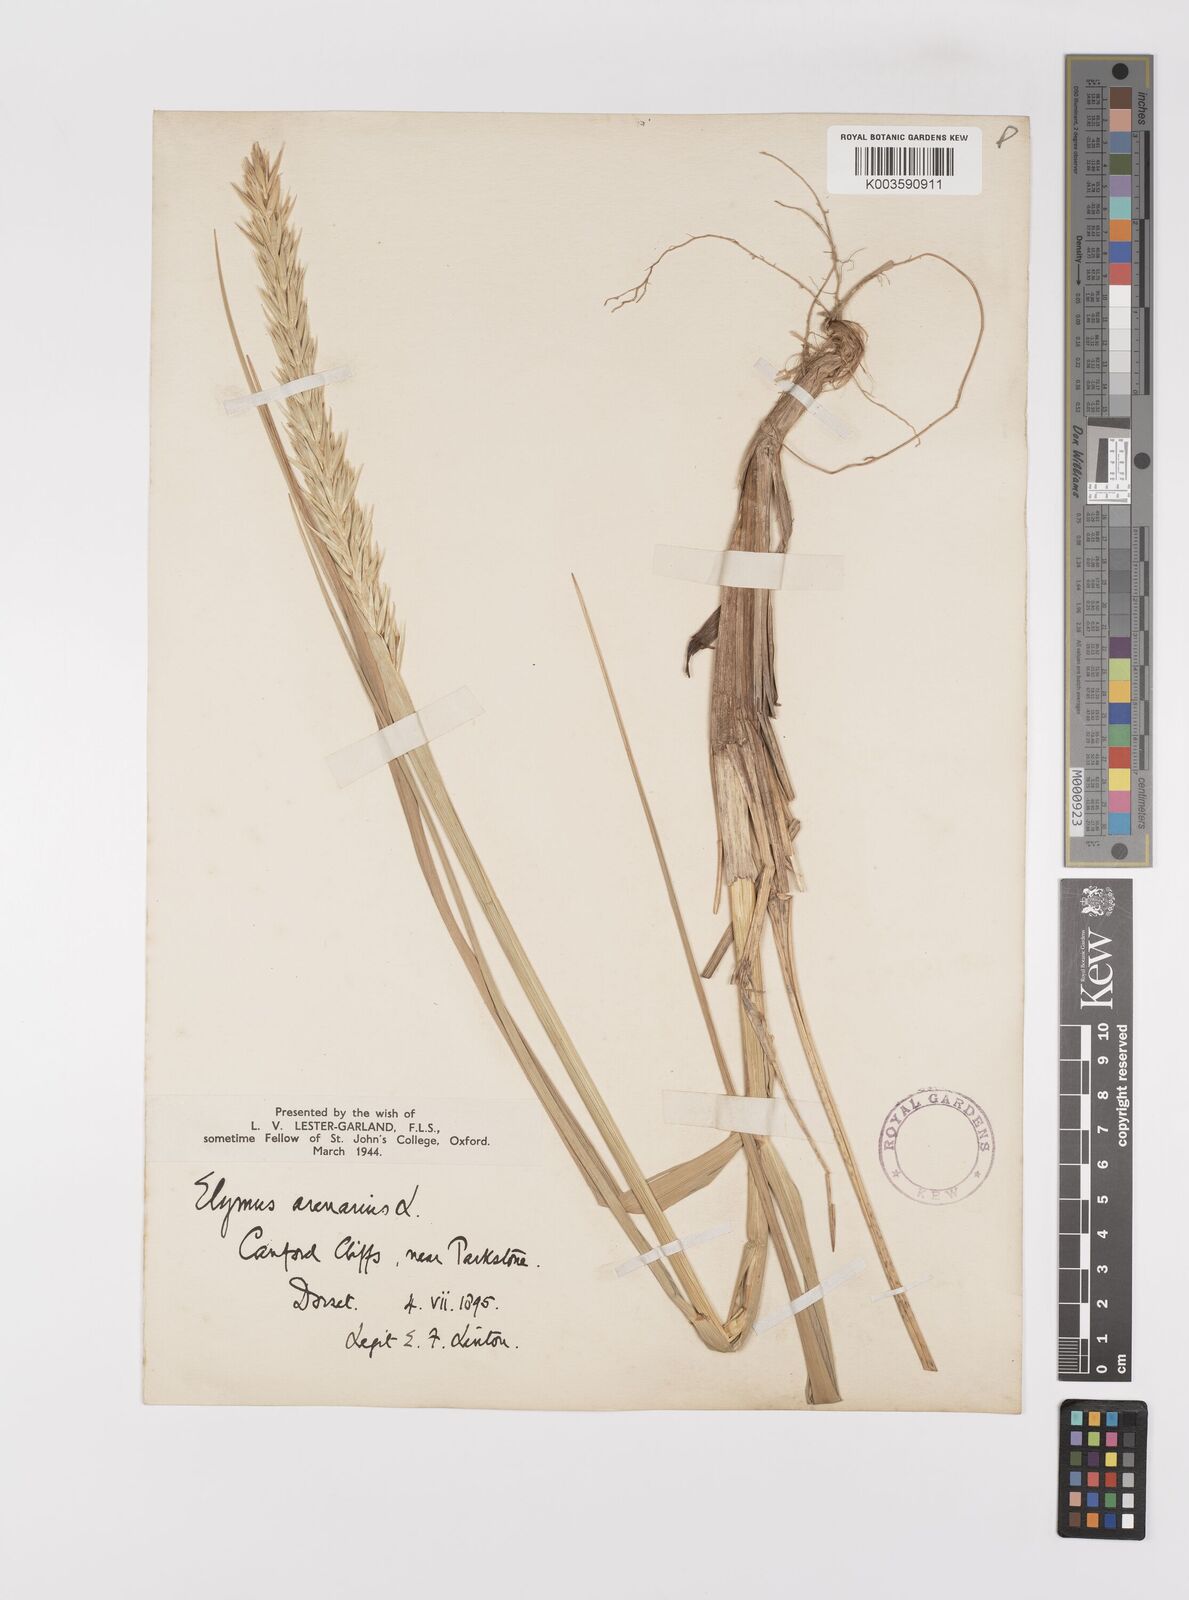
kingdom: Plantae
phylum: Tracheophyta
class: Liliopsida
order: Poales
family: Poaceae
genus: Leymus
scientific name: Leymus arenarius
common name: Lyme-grass
